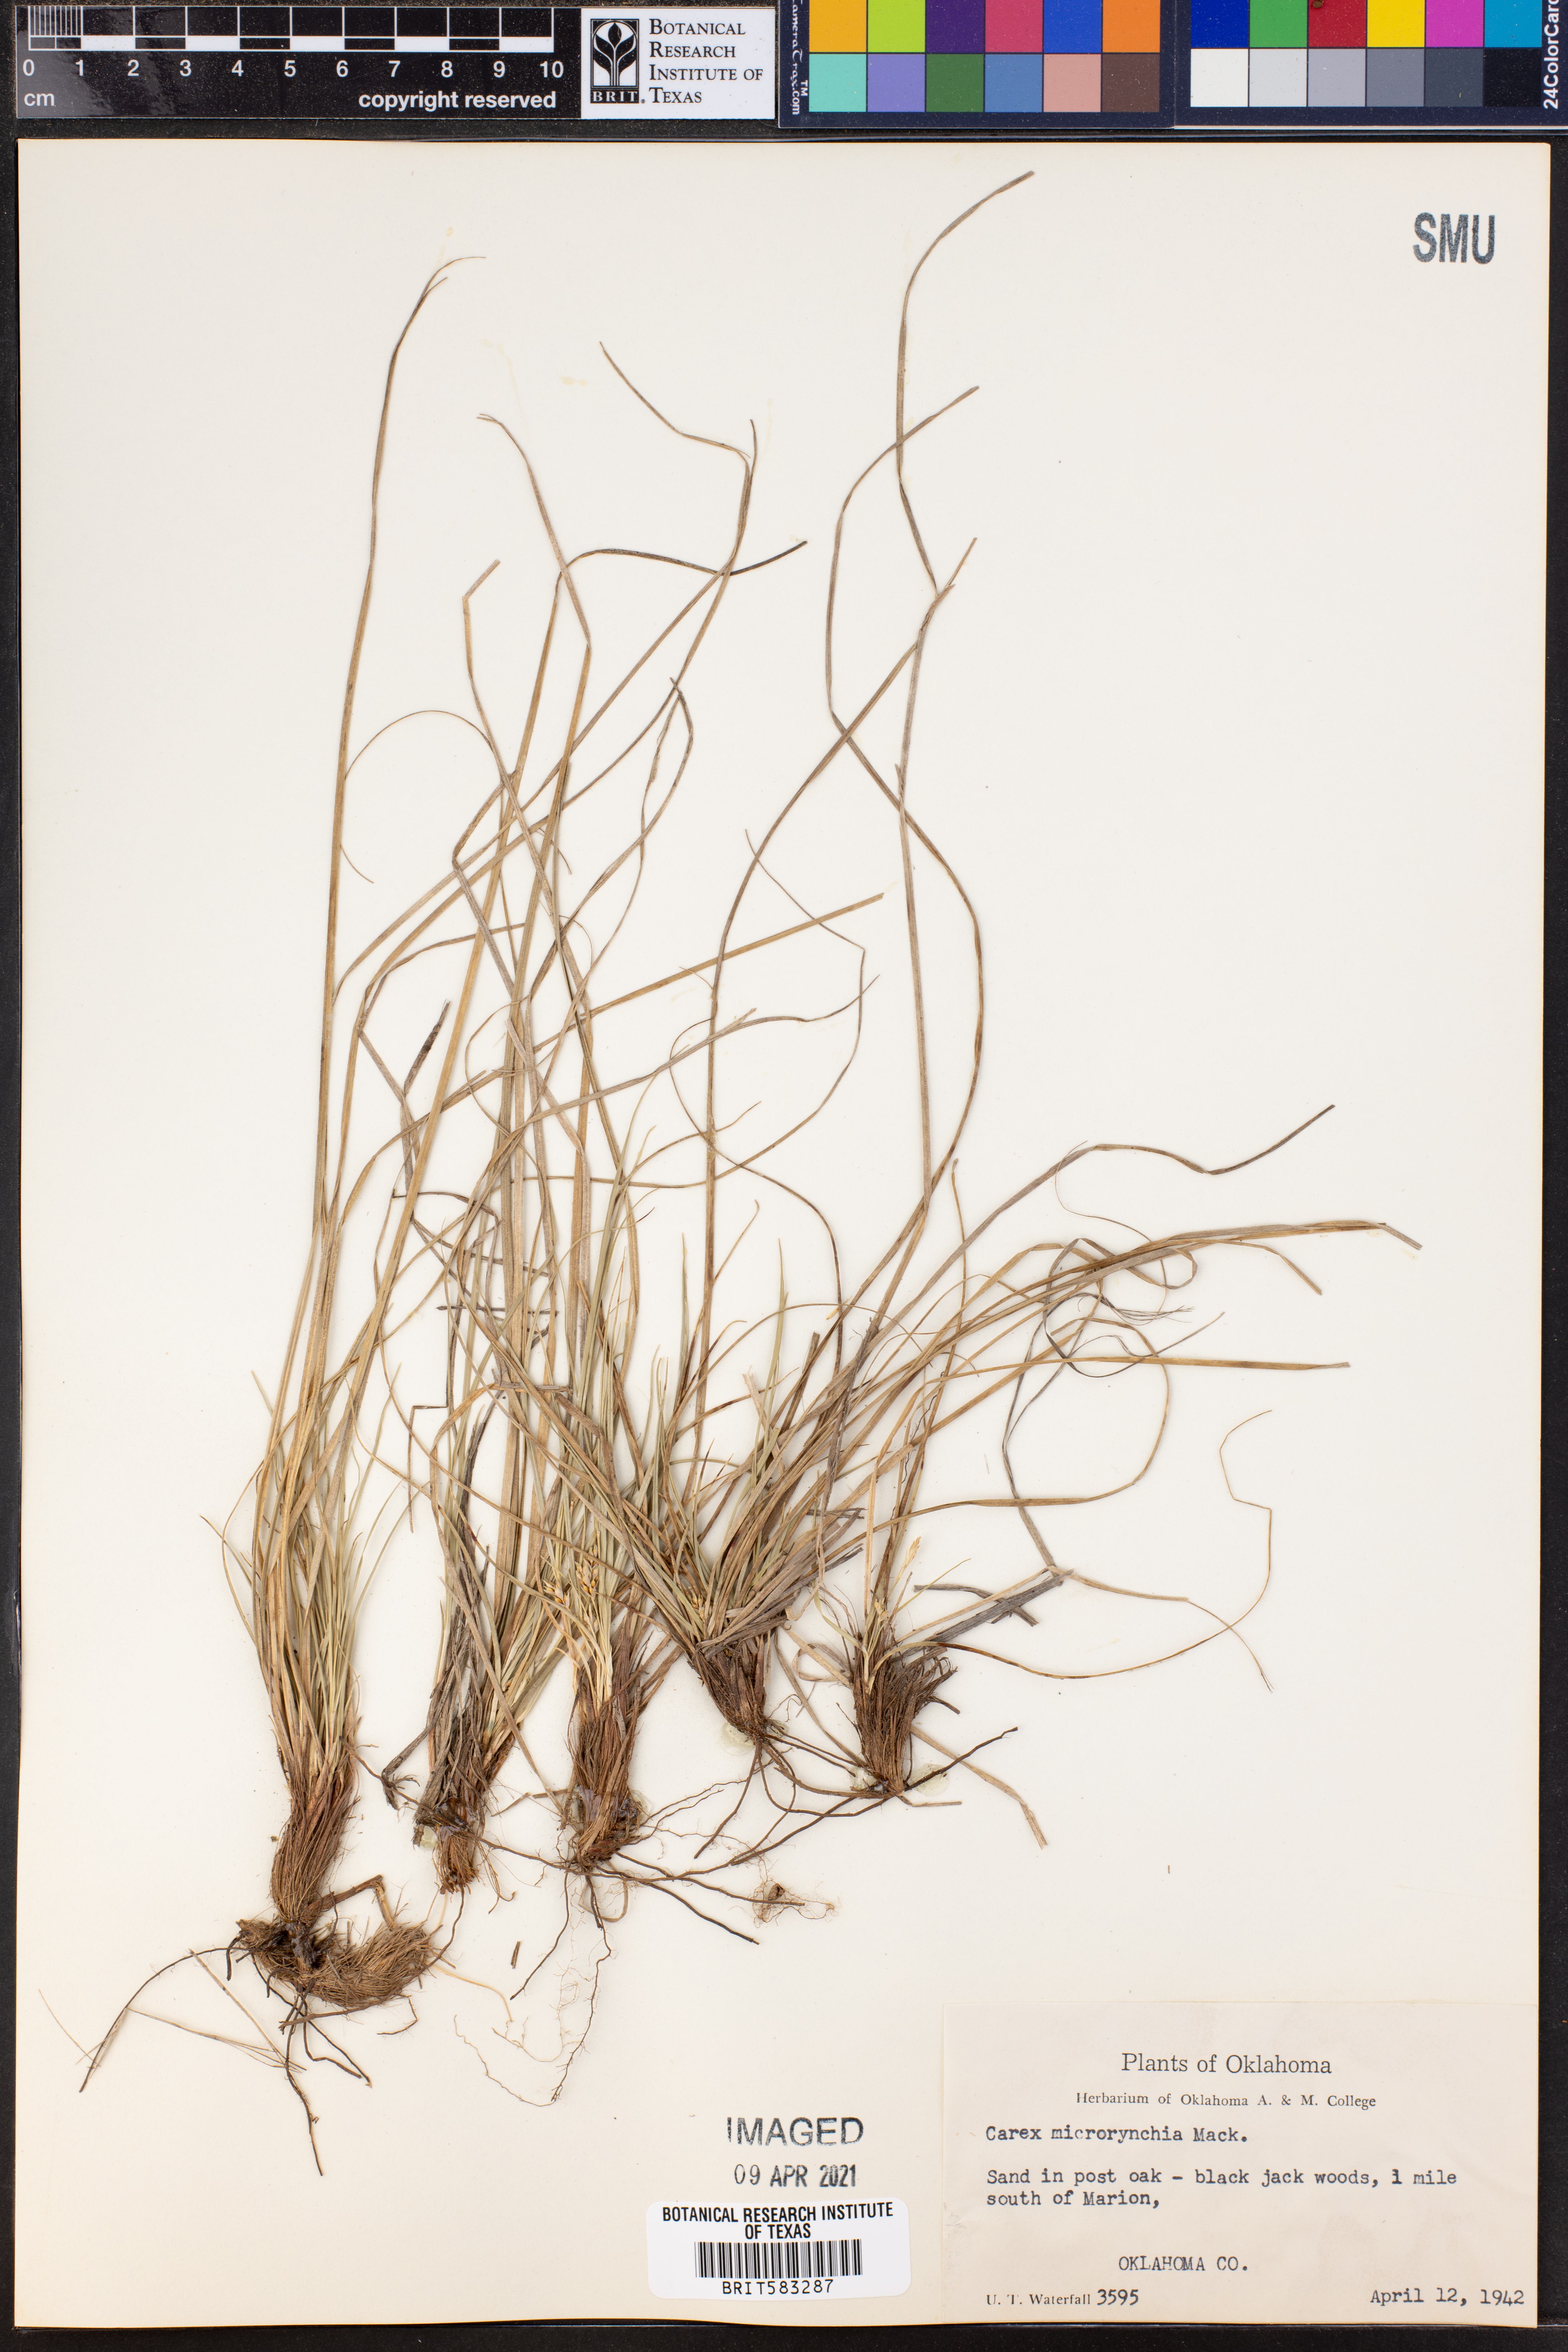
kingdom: Plantae
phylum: Tracheophyta
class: Liliopsida
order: Poales
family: Cyperaceae
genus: Carex
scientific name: Carex microrhyncha
